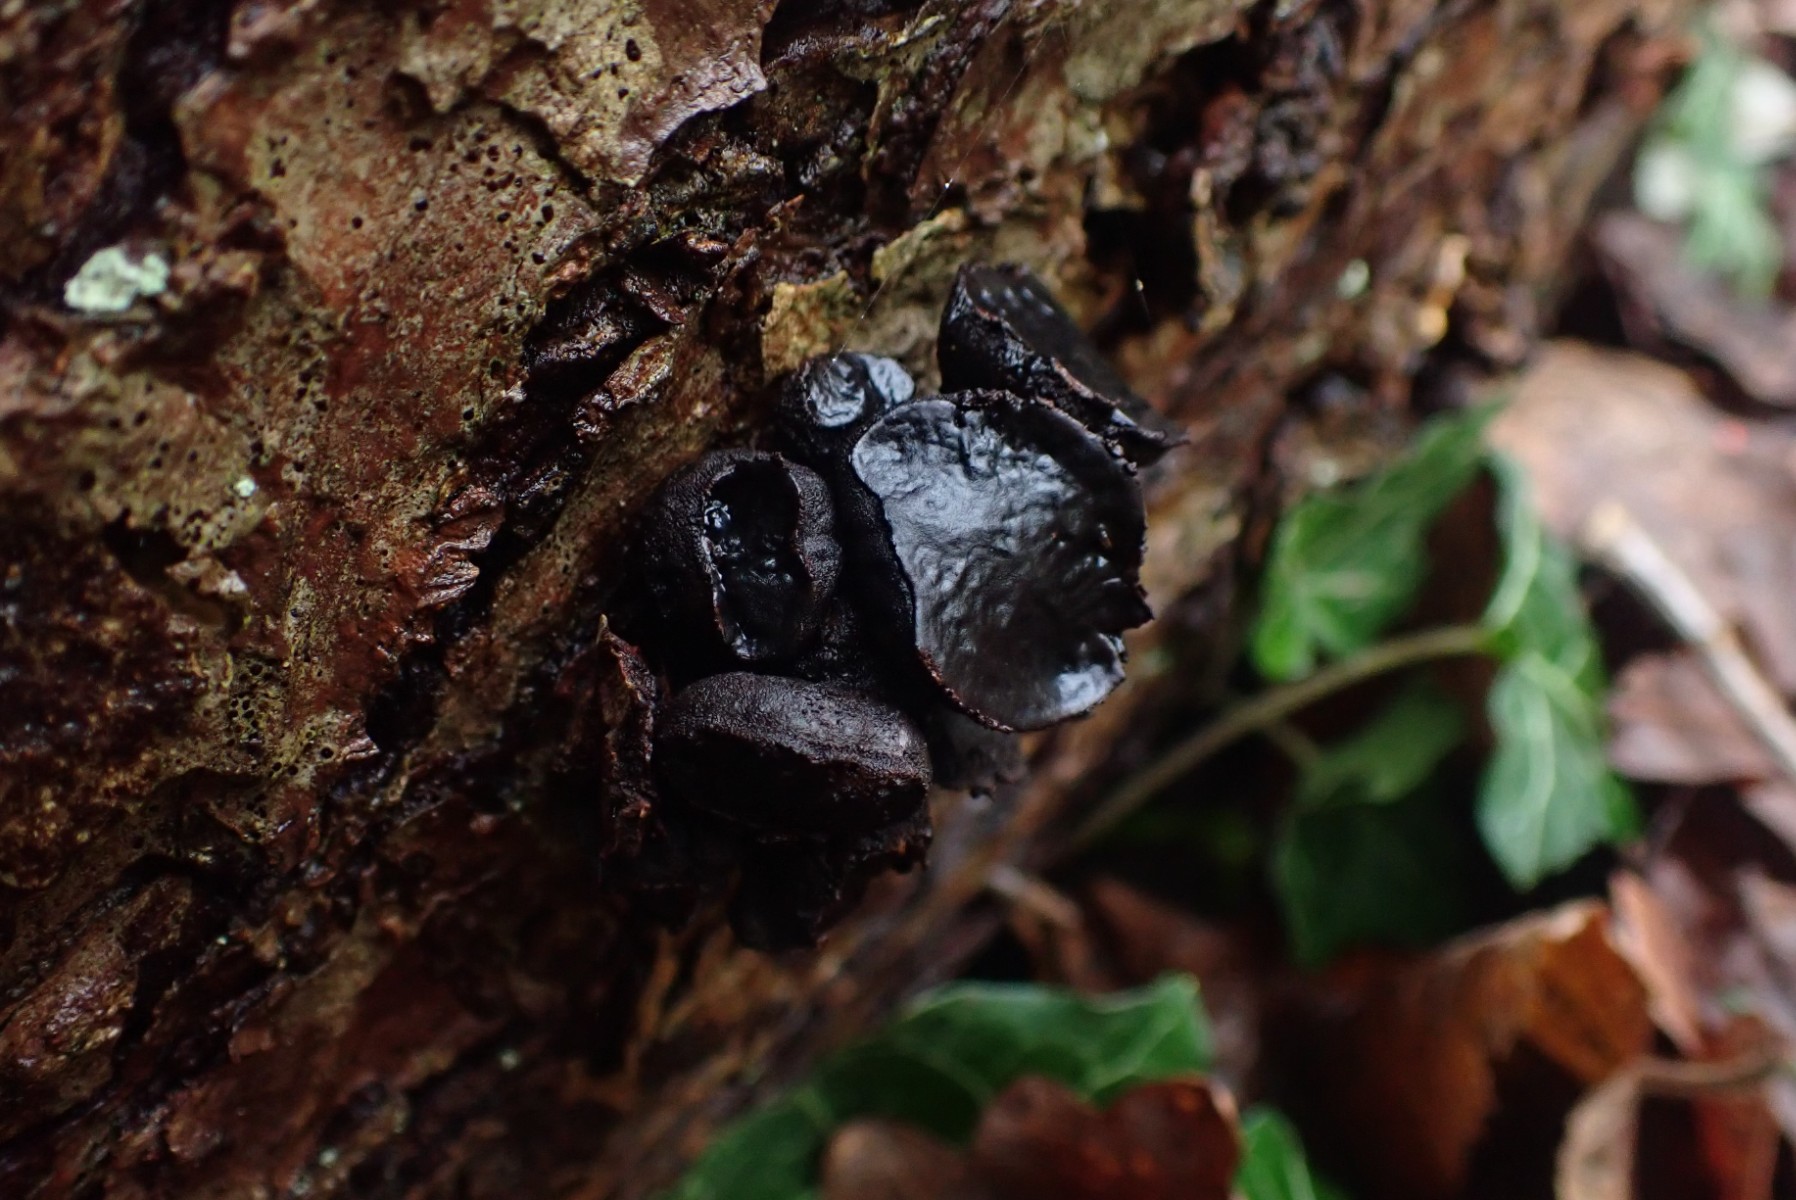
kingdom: Fungi
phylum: Ascomycota
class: Leotiomycetes
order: Phacidiales
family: Phacidiaceae
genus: Bulgaria
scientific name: Bulgaria inquinans
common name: afsmittende topsvamp
